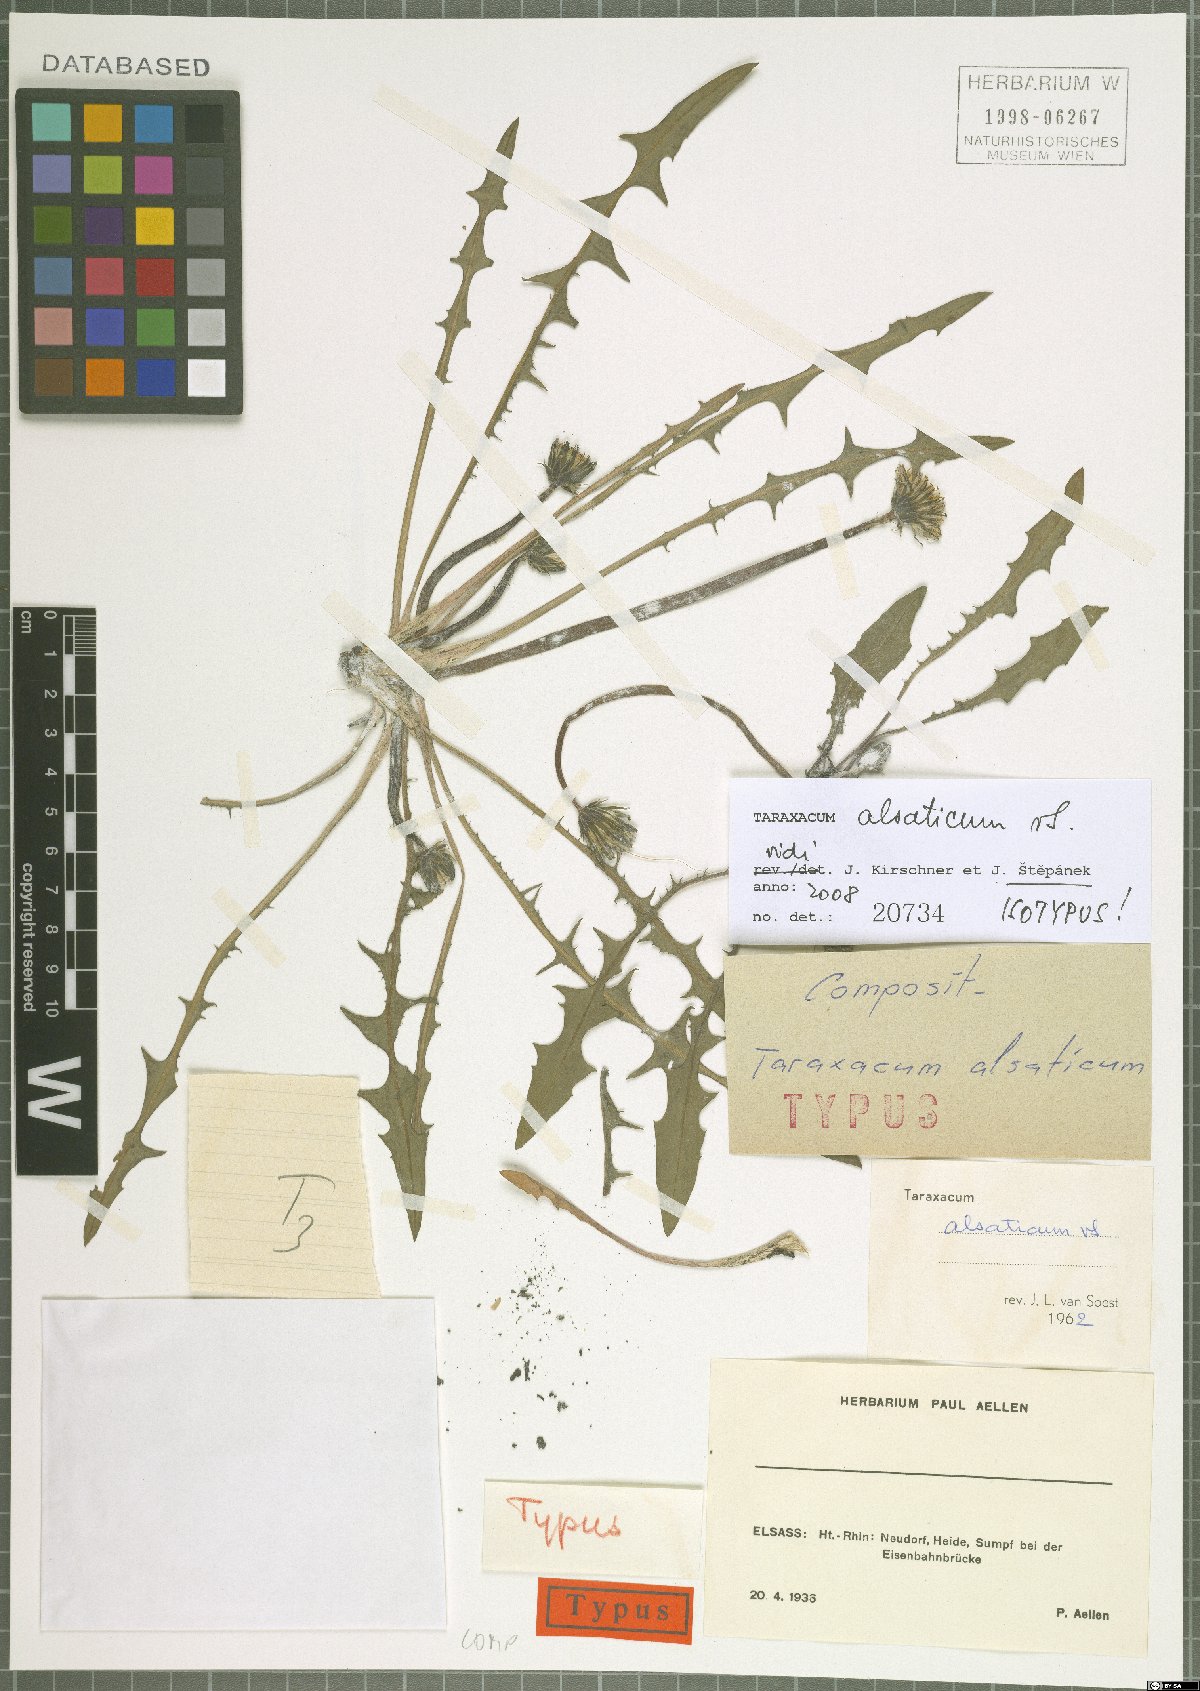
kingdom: Plantae
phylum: Tracheophyta
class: Magnoliopsida
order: Asterales
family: Asteraceae
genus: Taraxacum
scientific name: Taraxacum alsaticum
